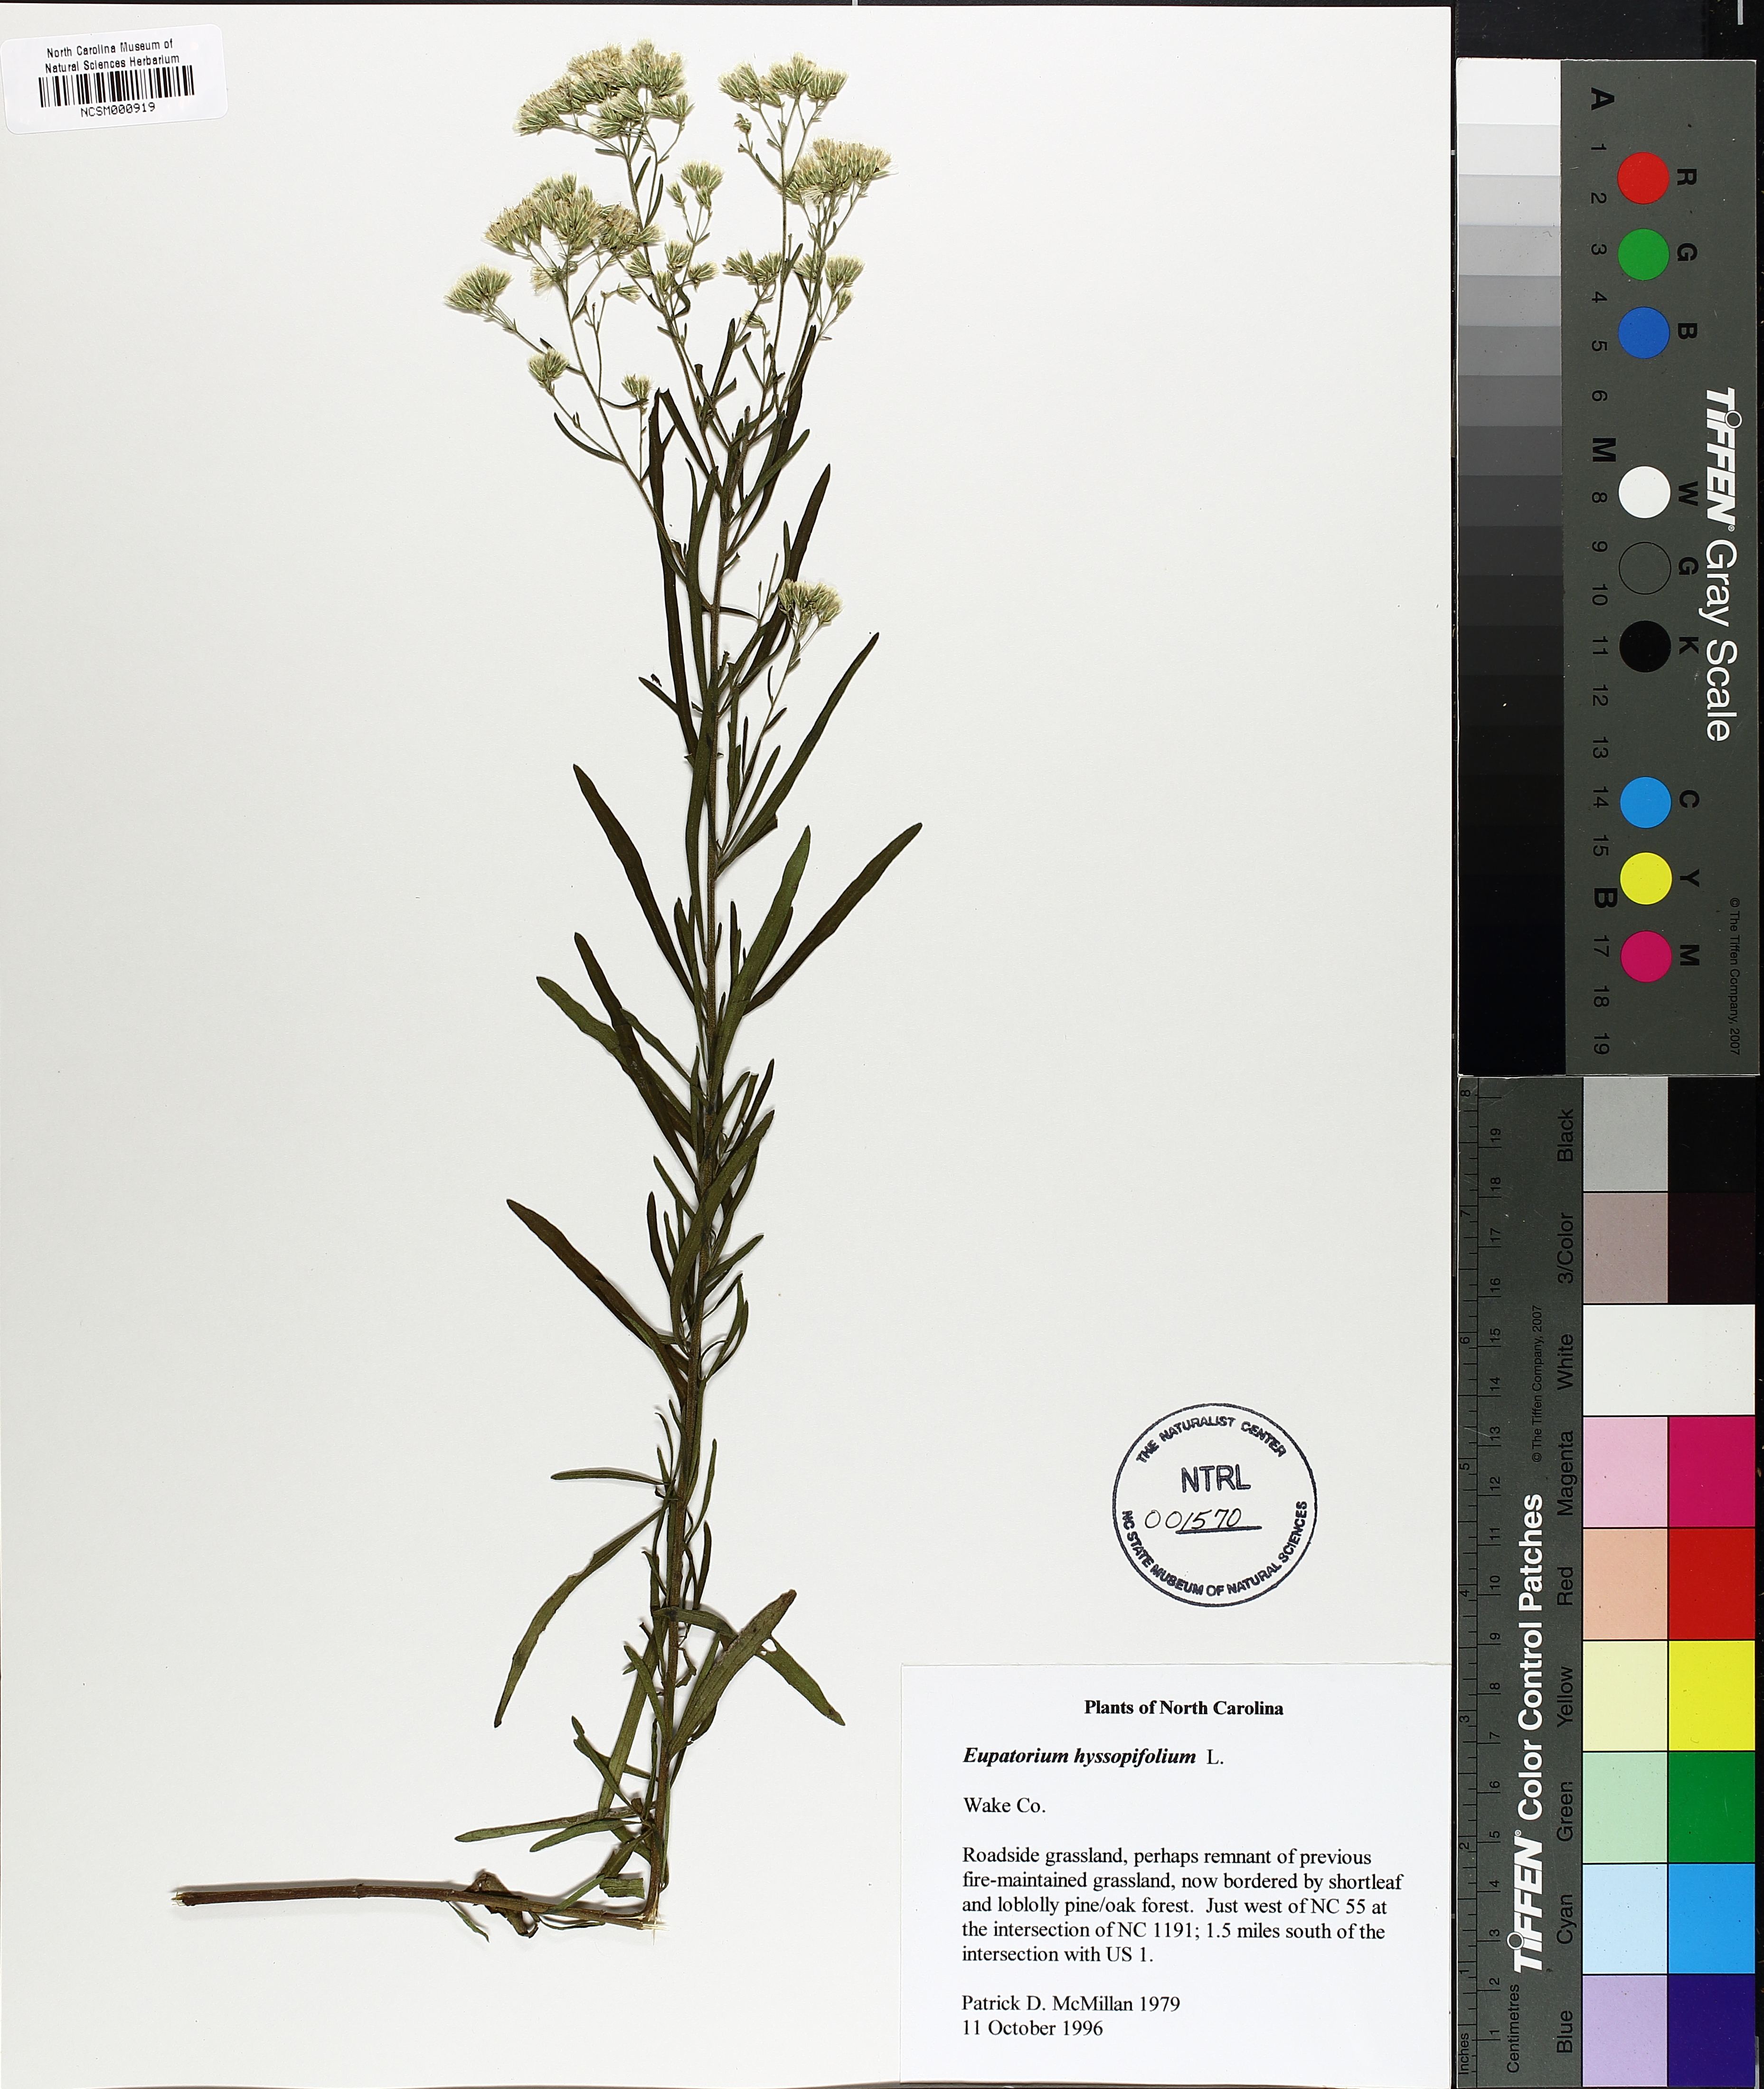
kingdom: Plantae
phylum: Tracheophyta
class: Magnoliopsida
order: Asterales
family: Asteraceae
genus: Eupatorium
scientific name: Eupatorium hyssopifolium
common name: Hyssop-leaf thoroughwort
